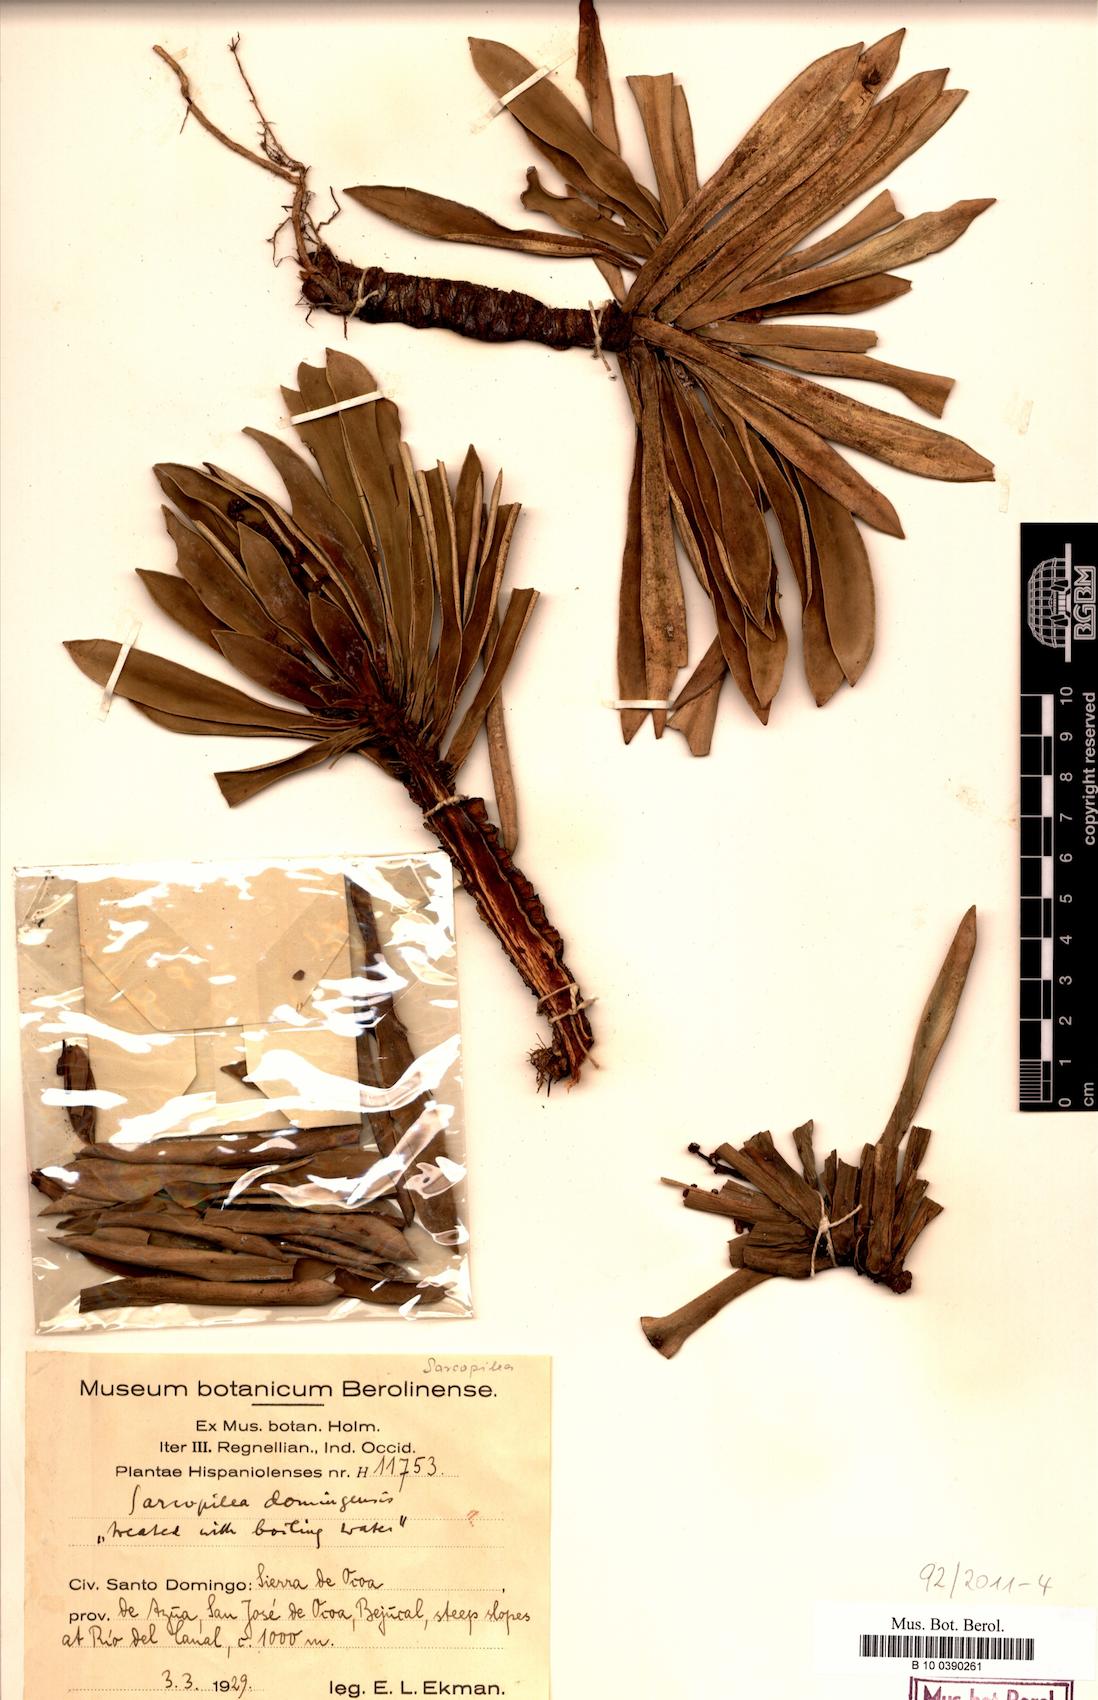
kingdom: Plantae
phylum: Tracheophyta
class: Magnoliopsida
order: Rosales
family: Urticaceae
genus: Pilea
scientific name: Pilea fairchildiana
